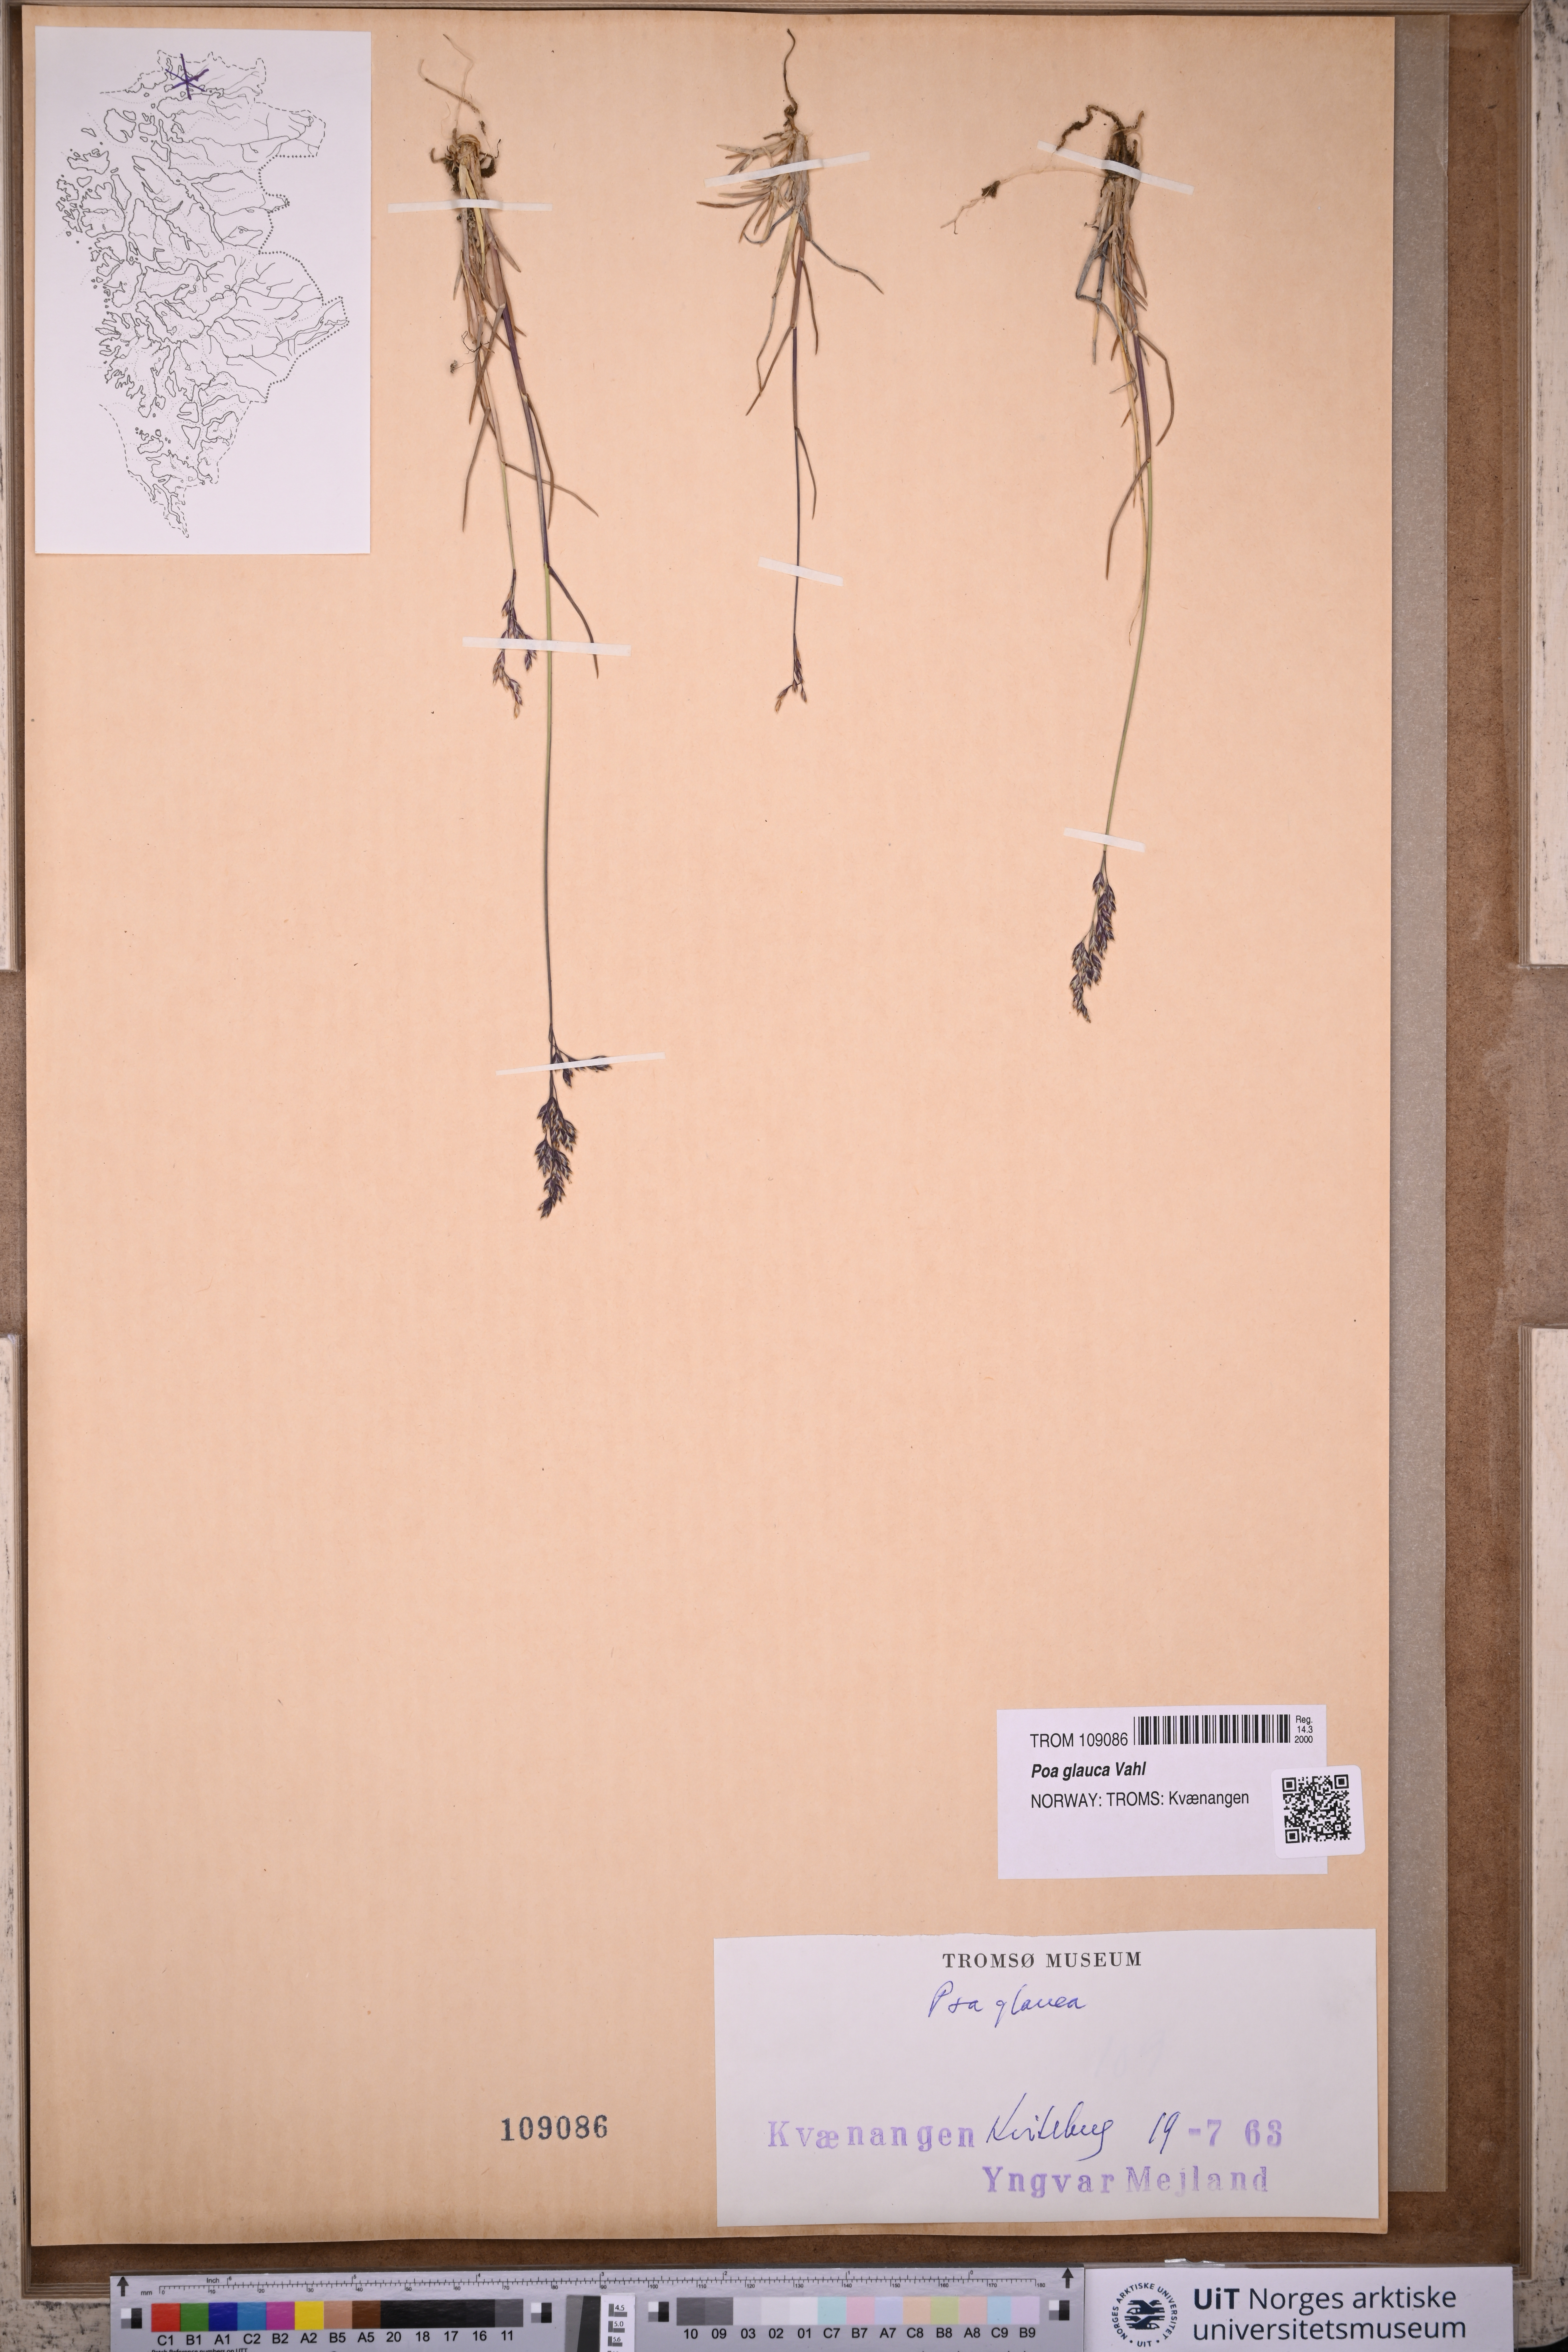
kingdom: Plantae
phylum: Tracheophyta
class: Liliopsida
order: Poales
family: Poaceae
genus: Poa
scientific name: Poa glauca
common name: Glaucous bluegrass
